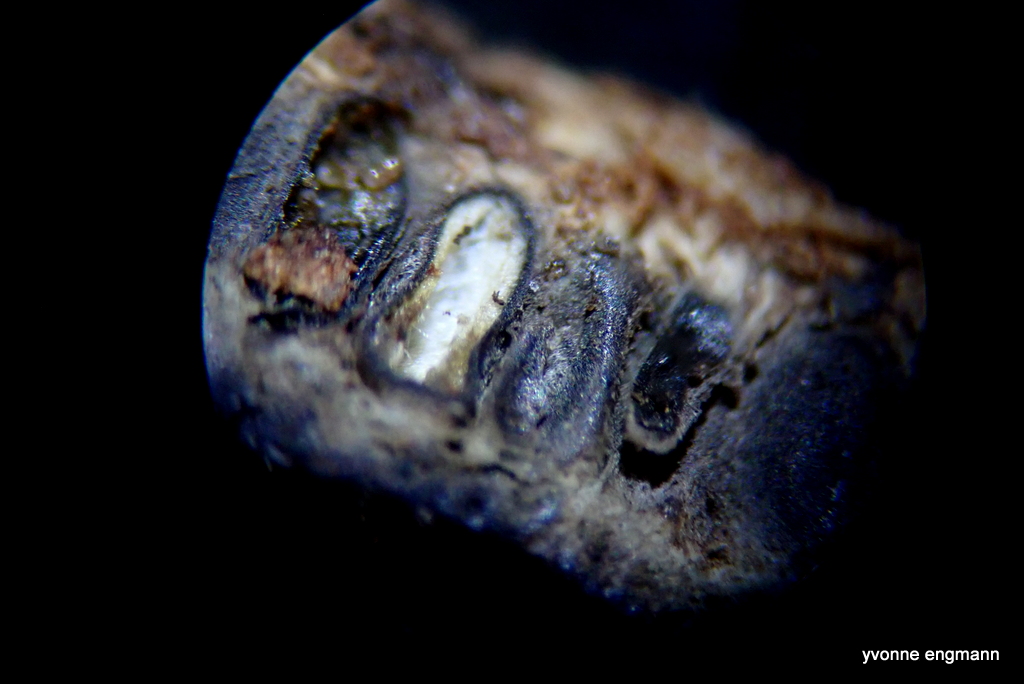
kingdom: Fungi
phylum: Ascomycota
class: Sordariomycetes
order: Xylariales
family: Diatrypaceae
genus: Eutypella
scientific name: Eutypella sorbi
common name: rønne-kulskorpe
